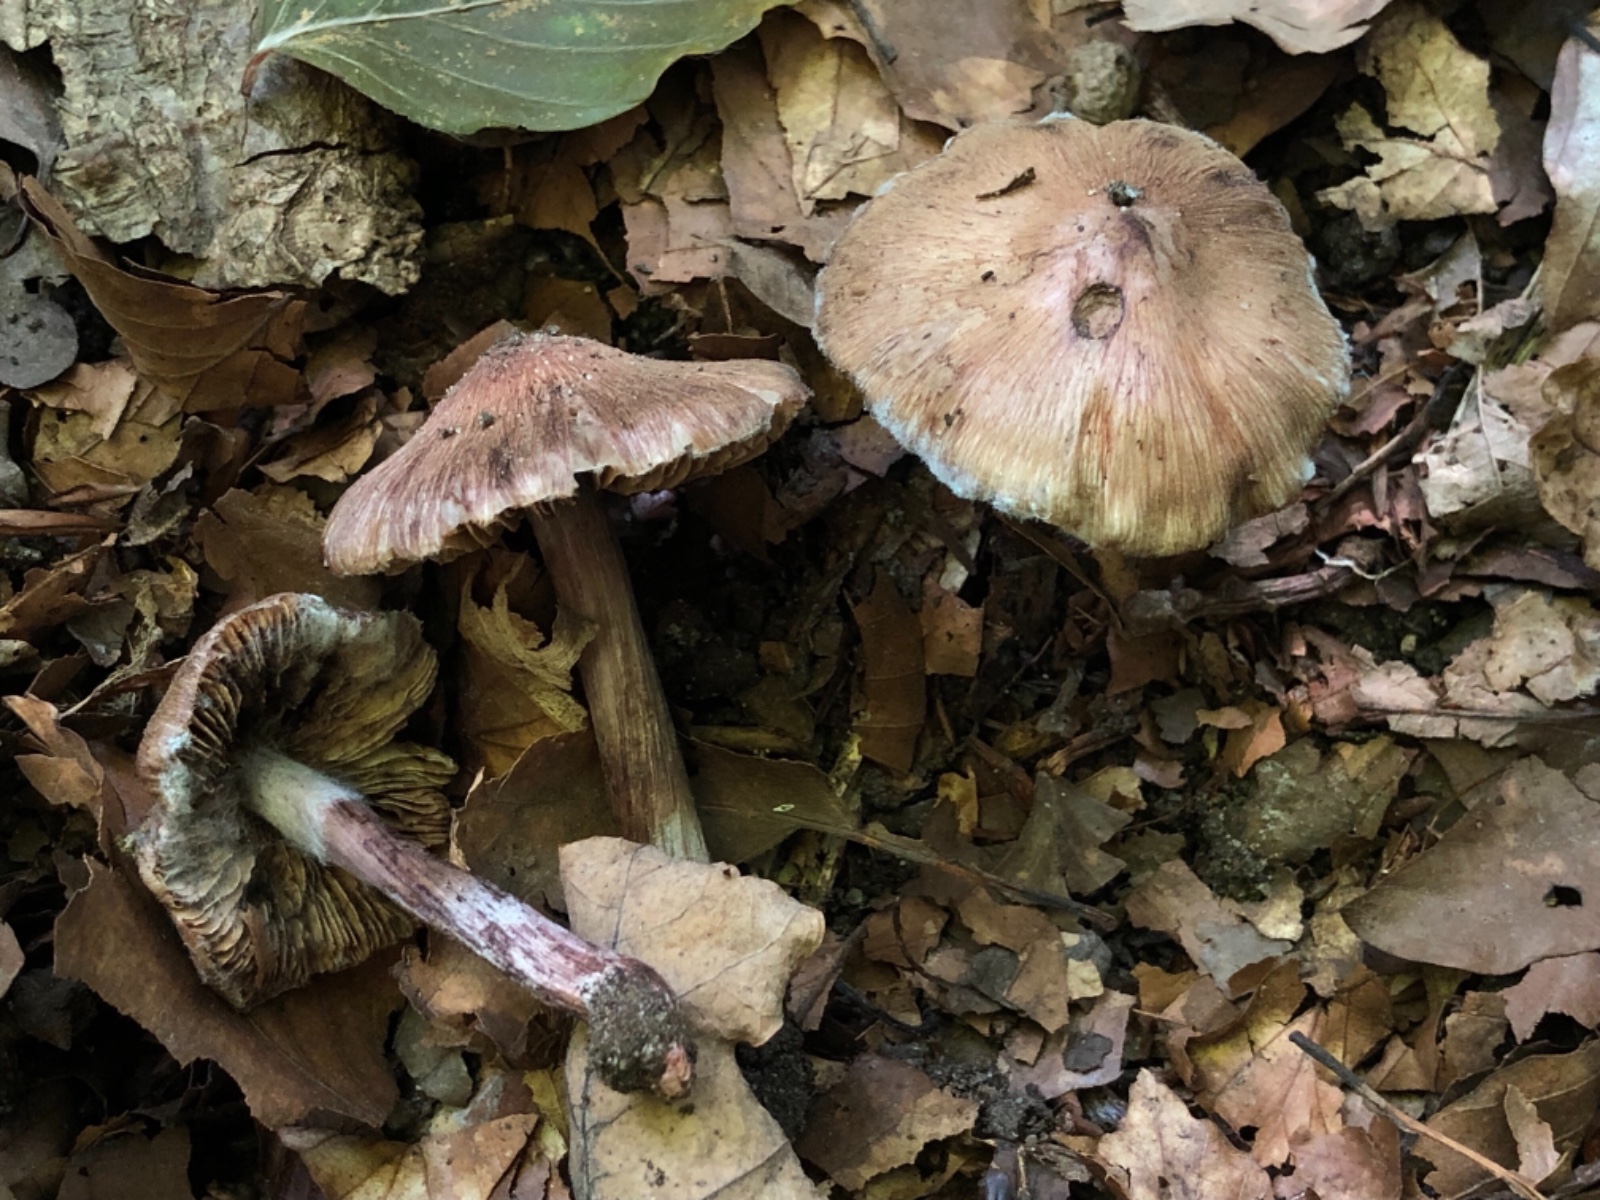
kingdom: Fungi
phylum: Basidiomycota
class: Agaricomycetes
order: Agaricales
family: Inocybaceae
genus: Inosperma
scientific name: Inosperma adaequatum
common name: vinrød trævlhat
